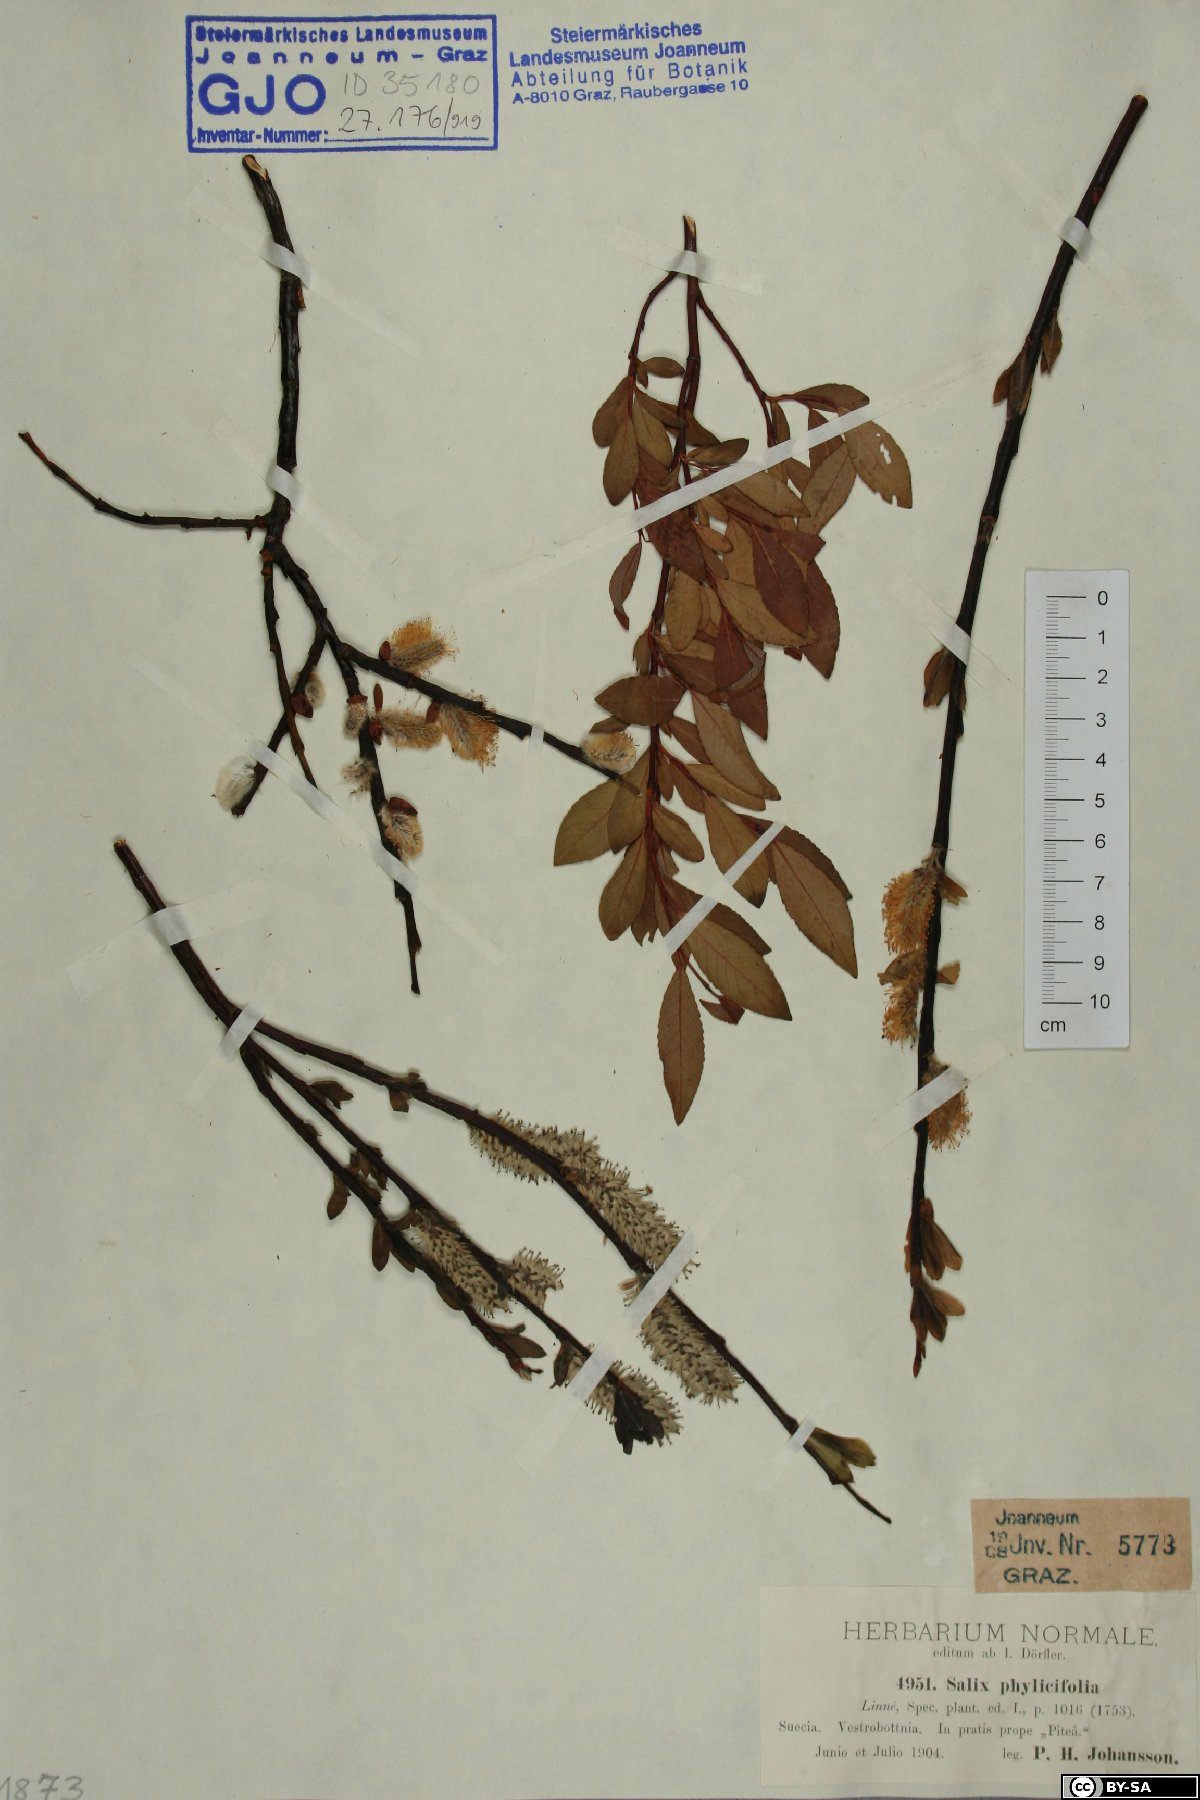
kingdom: Plantae
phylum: Tracheophyta
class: Magnoliopsida
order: Malpighiales
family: Salicaceae
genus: Salix
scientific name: Salix phylicifolia
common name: Tea-leaved willow
